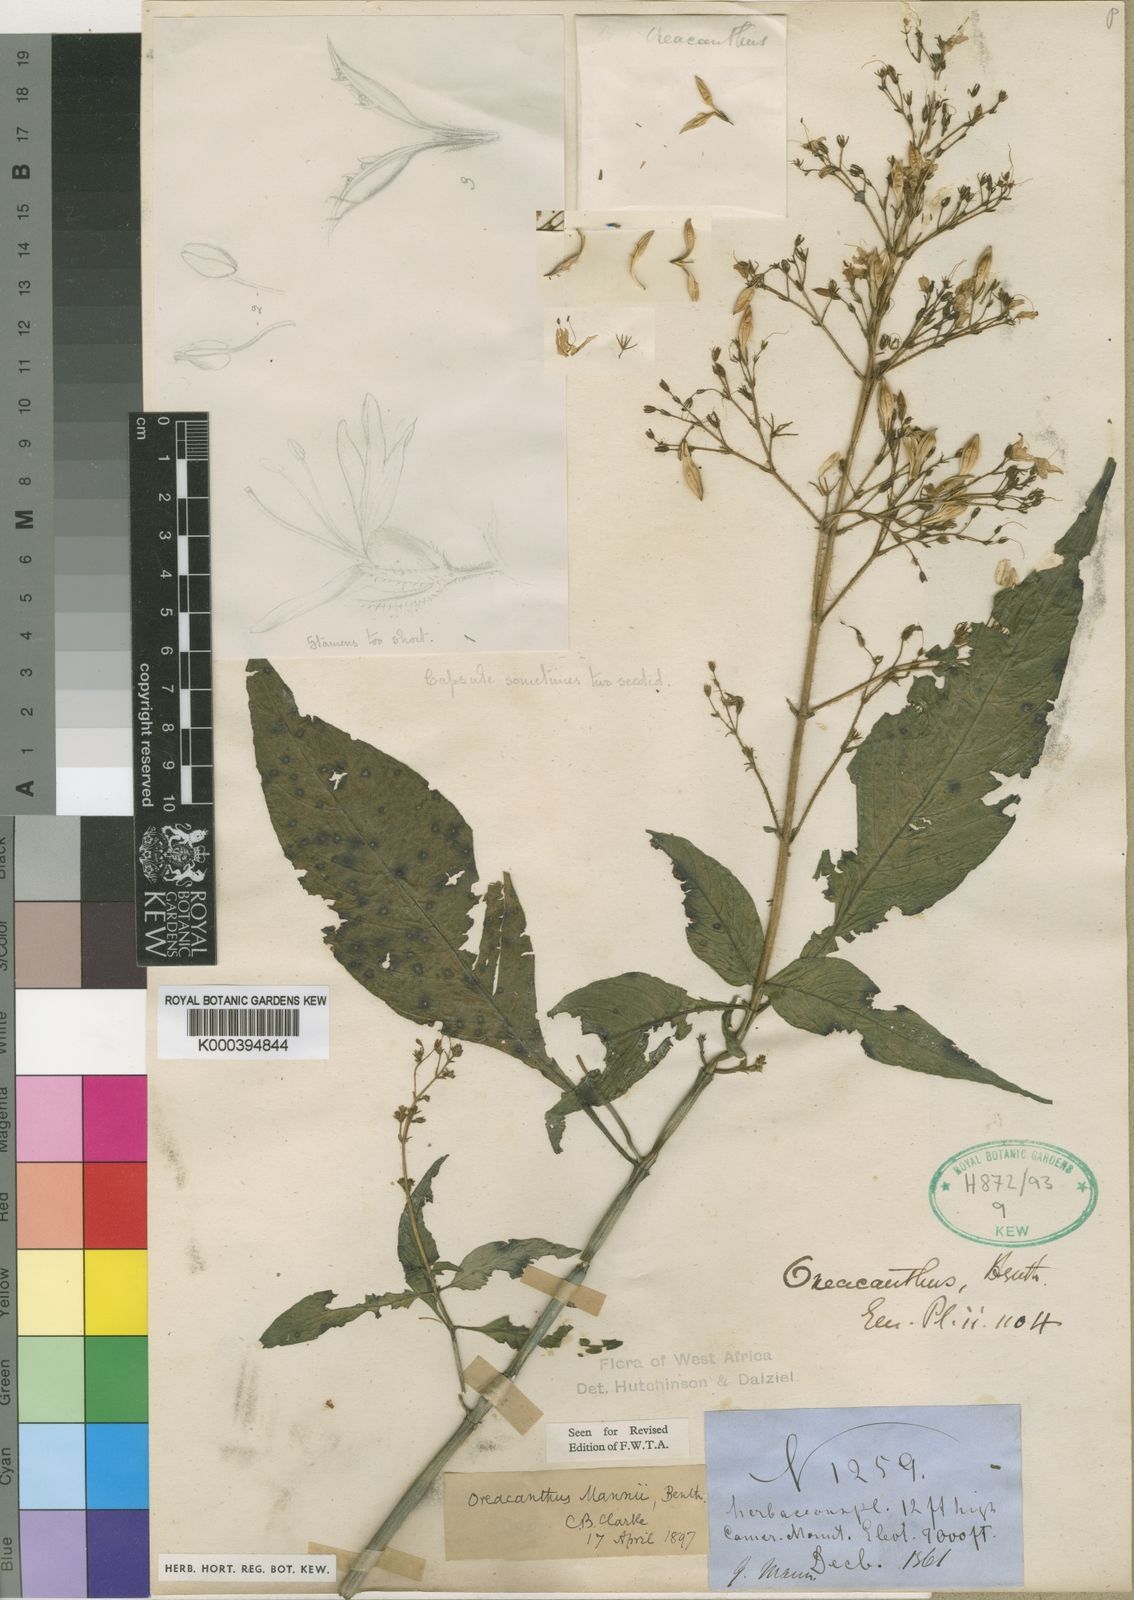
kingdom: Plantae
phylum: Tracheophyta
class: Magnoliopsida
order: Lamiales
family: Acanthaceae
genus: Brachystephanus
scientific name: Brachystephanus giganteus
